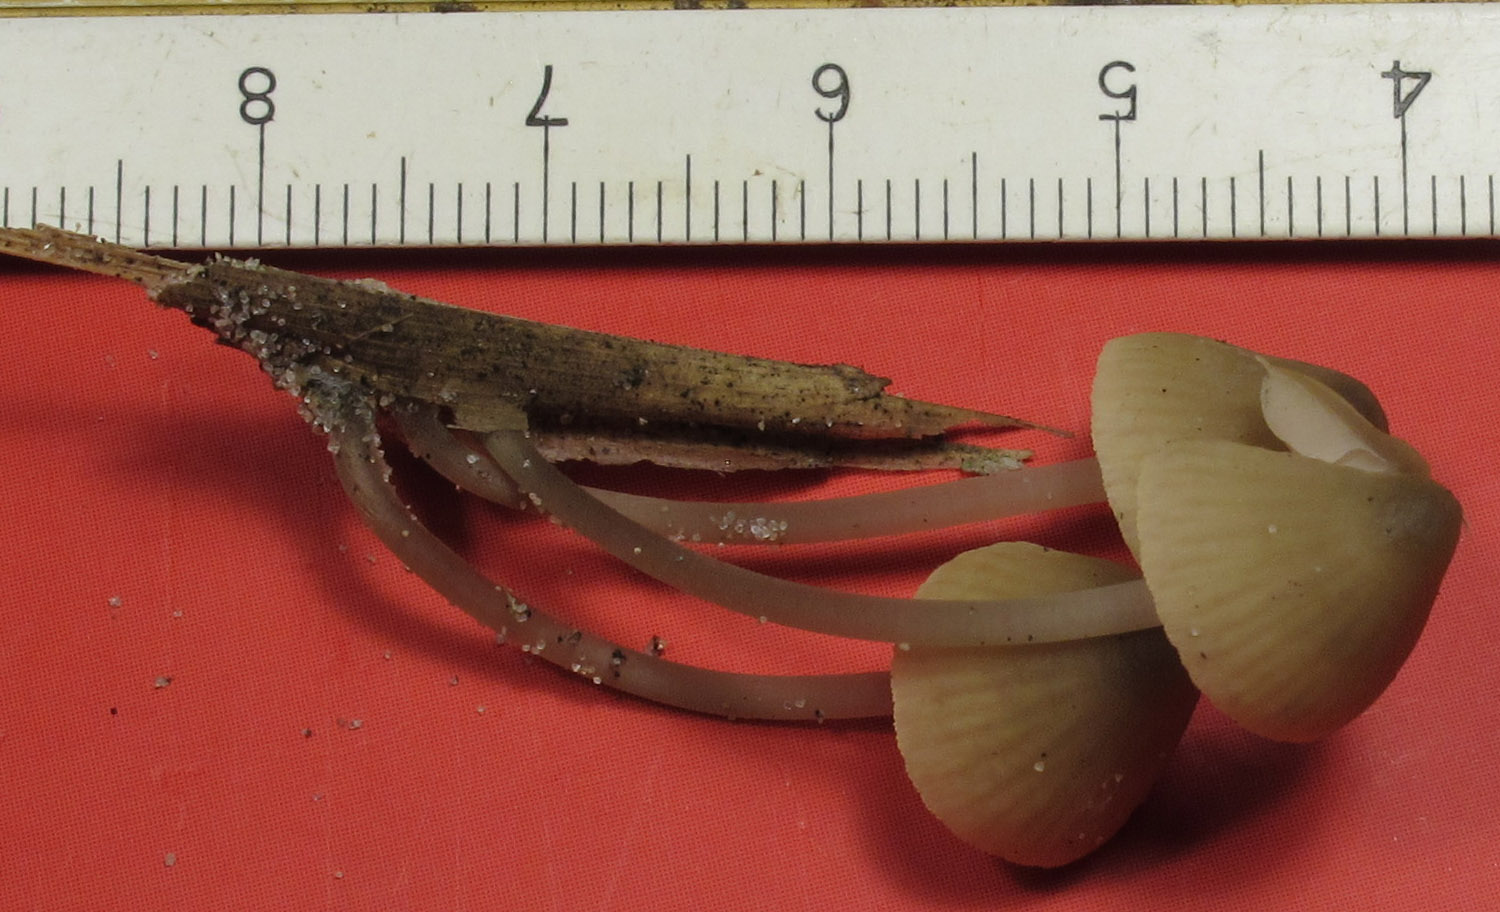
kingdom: Fungi
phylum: Basidiomycota
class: Agaricomycetes
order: Agaricales
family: Mycenaceae
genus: Mycena
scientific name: Mycena chlorantha
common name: klit-huesvamp
